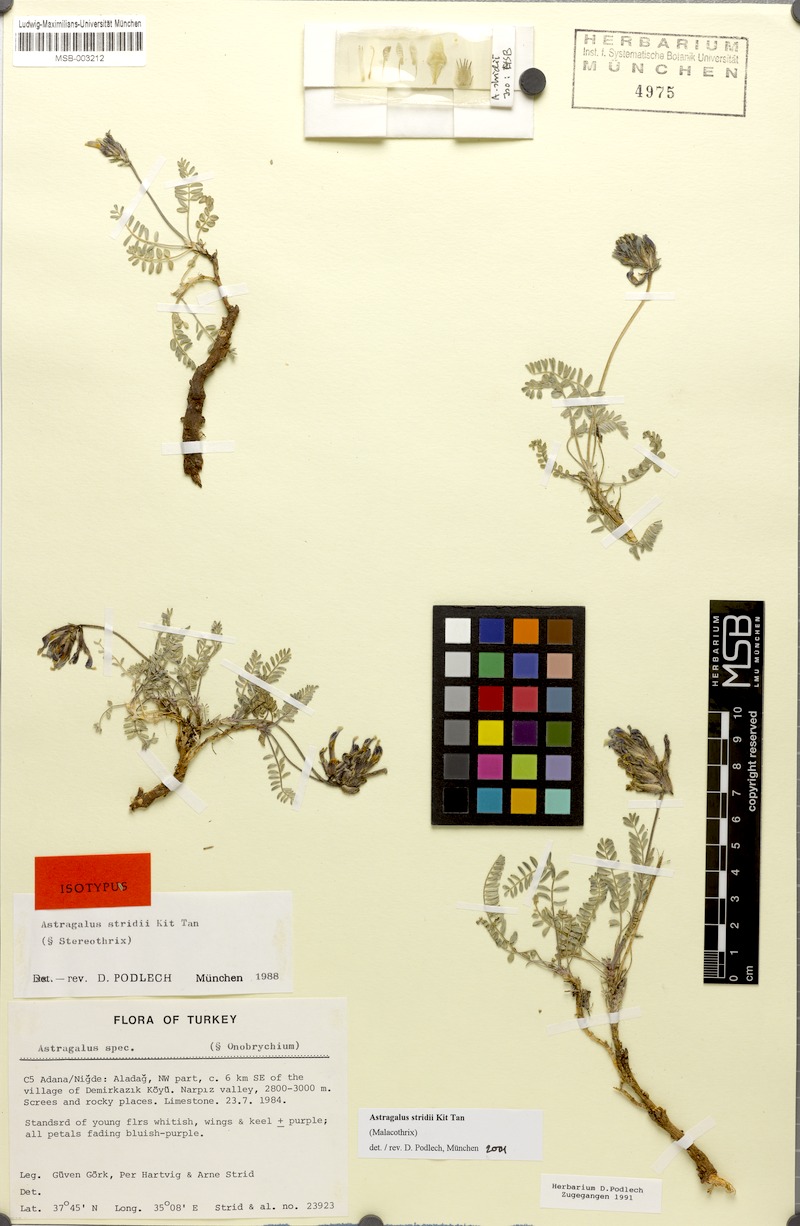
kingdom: Plantae
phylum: Tracheophyta
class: Magnoliopsida
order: Fabales
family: Fabaceae
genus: Astragalus
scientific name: Astragalus stridii
